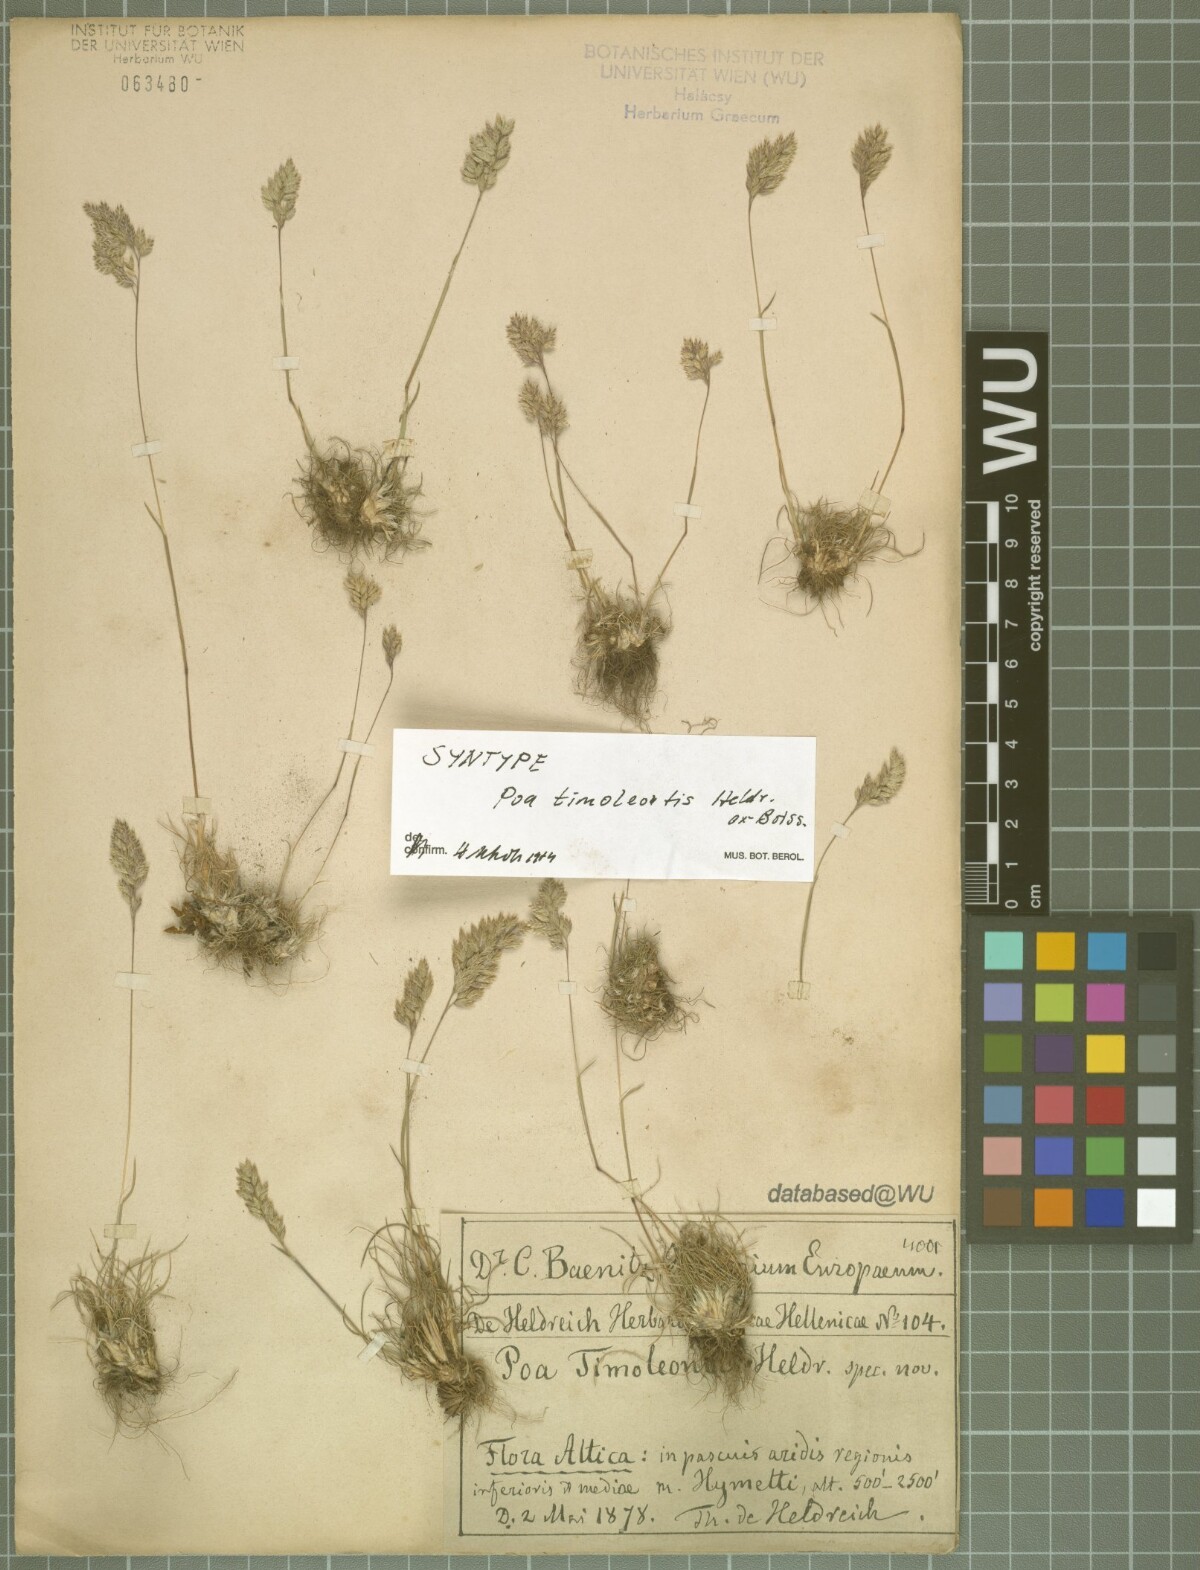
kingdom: Plantae
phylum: Tracheophyta
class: Liliopsida
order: Poales
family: Poaceae
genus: Poa
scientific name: Poa timoleontis
